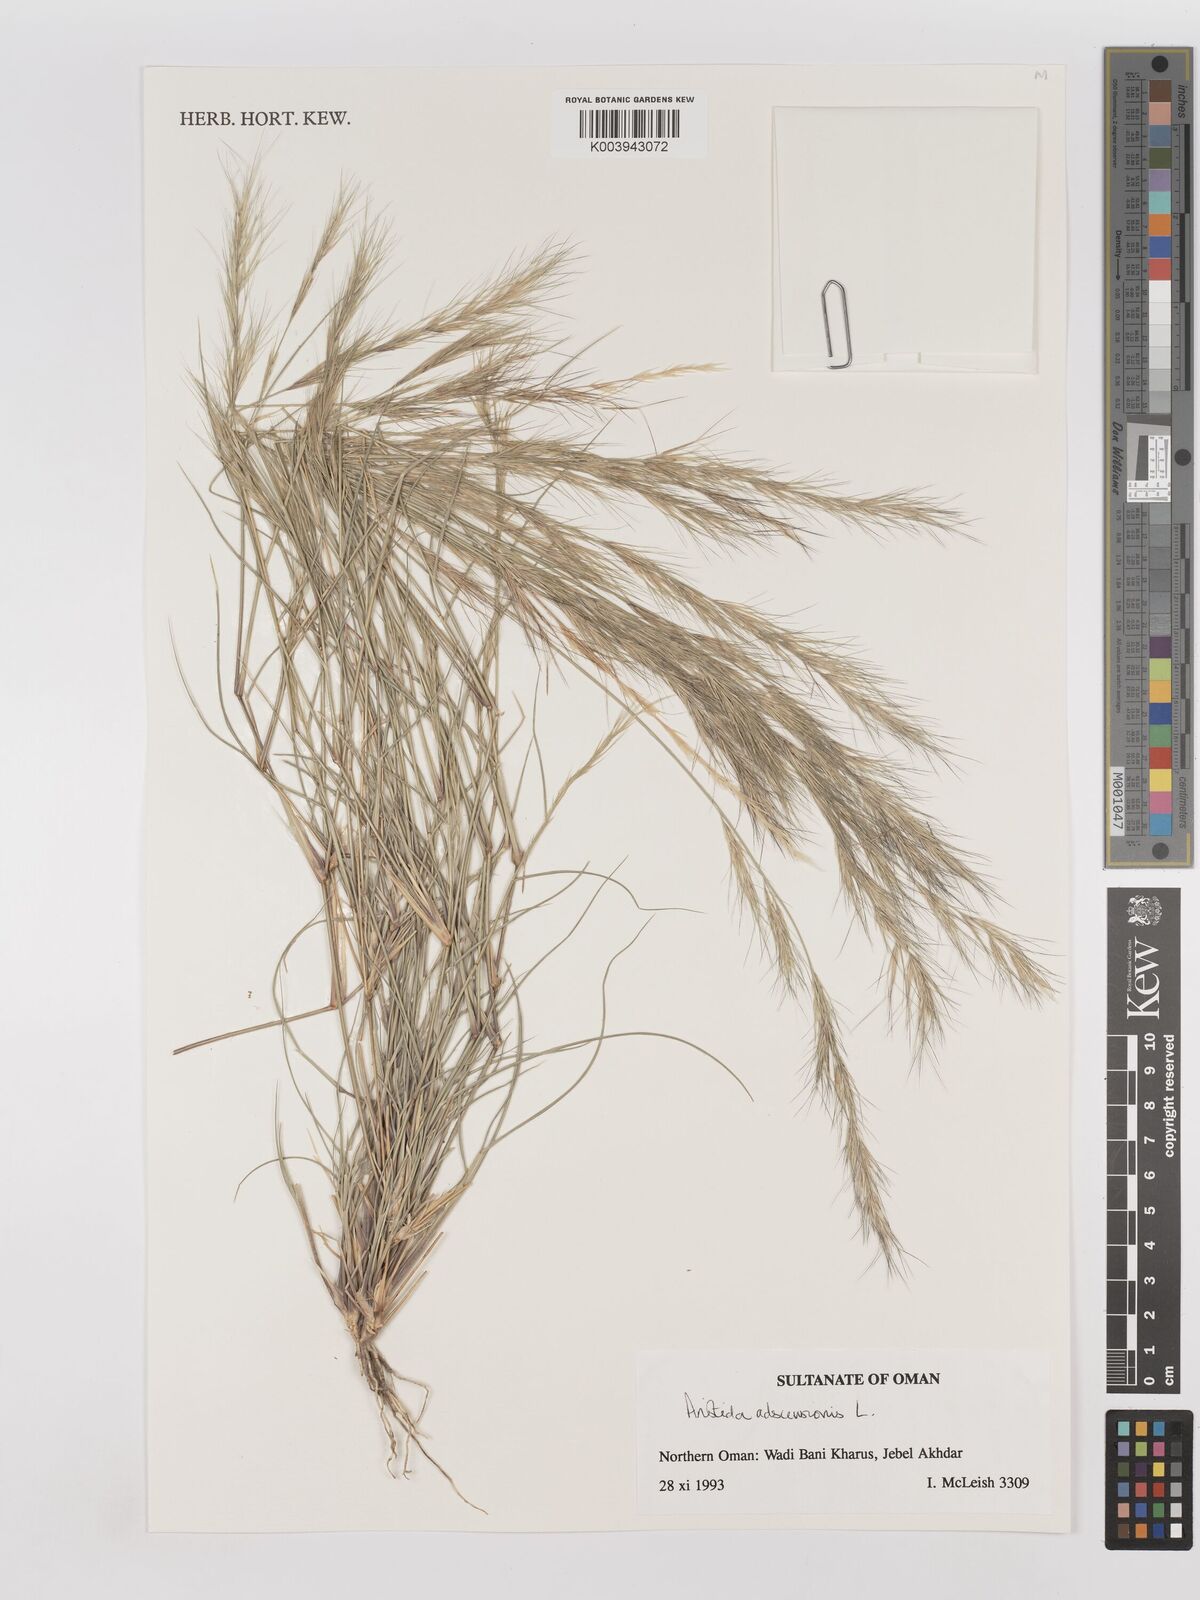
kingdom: Plantae
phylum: Tracheophyta
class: Liliopsida
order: Poales
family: Poaceae
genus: Aristida
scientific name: Aristida adscensionis
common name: Sixweeks threeawn
